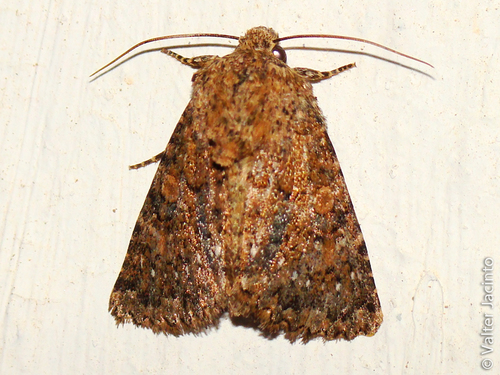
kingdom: Animalia
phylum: Arthropoda
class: Insecta
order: Lepidoptera
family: Noctuidae
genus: Recoropha
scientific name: Recoropha canteneri
